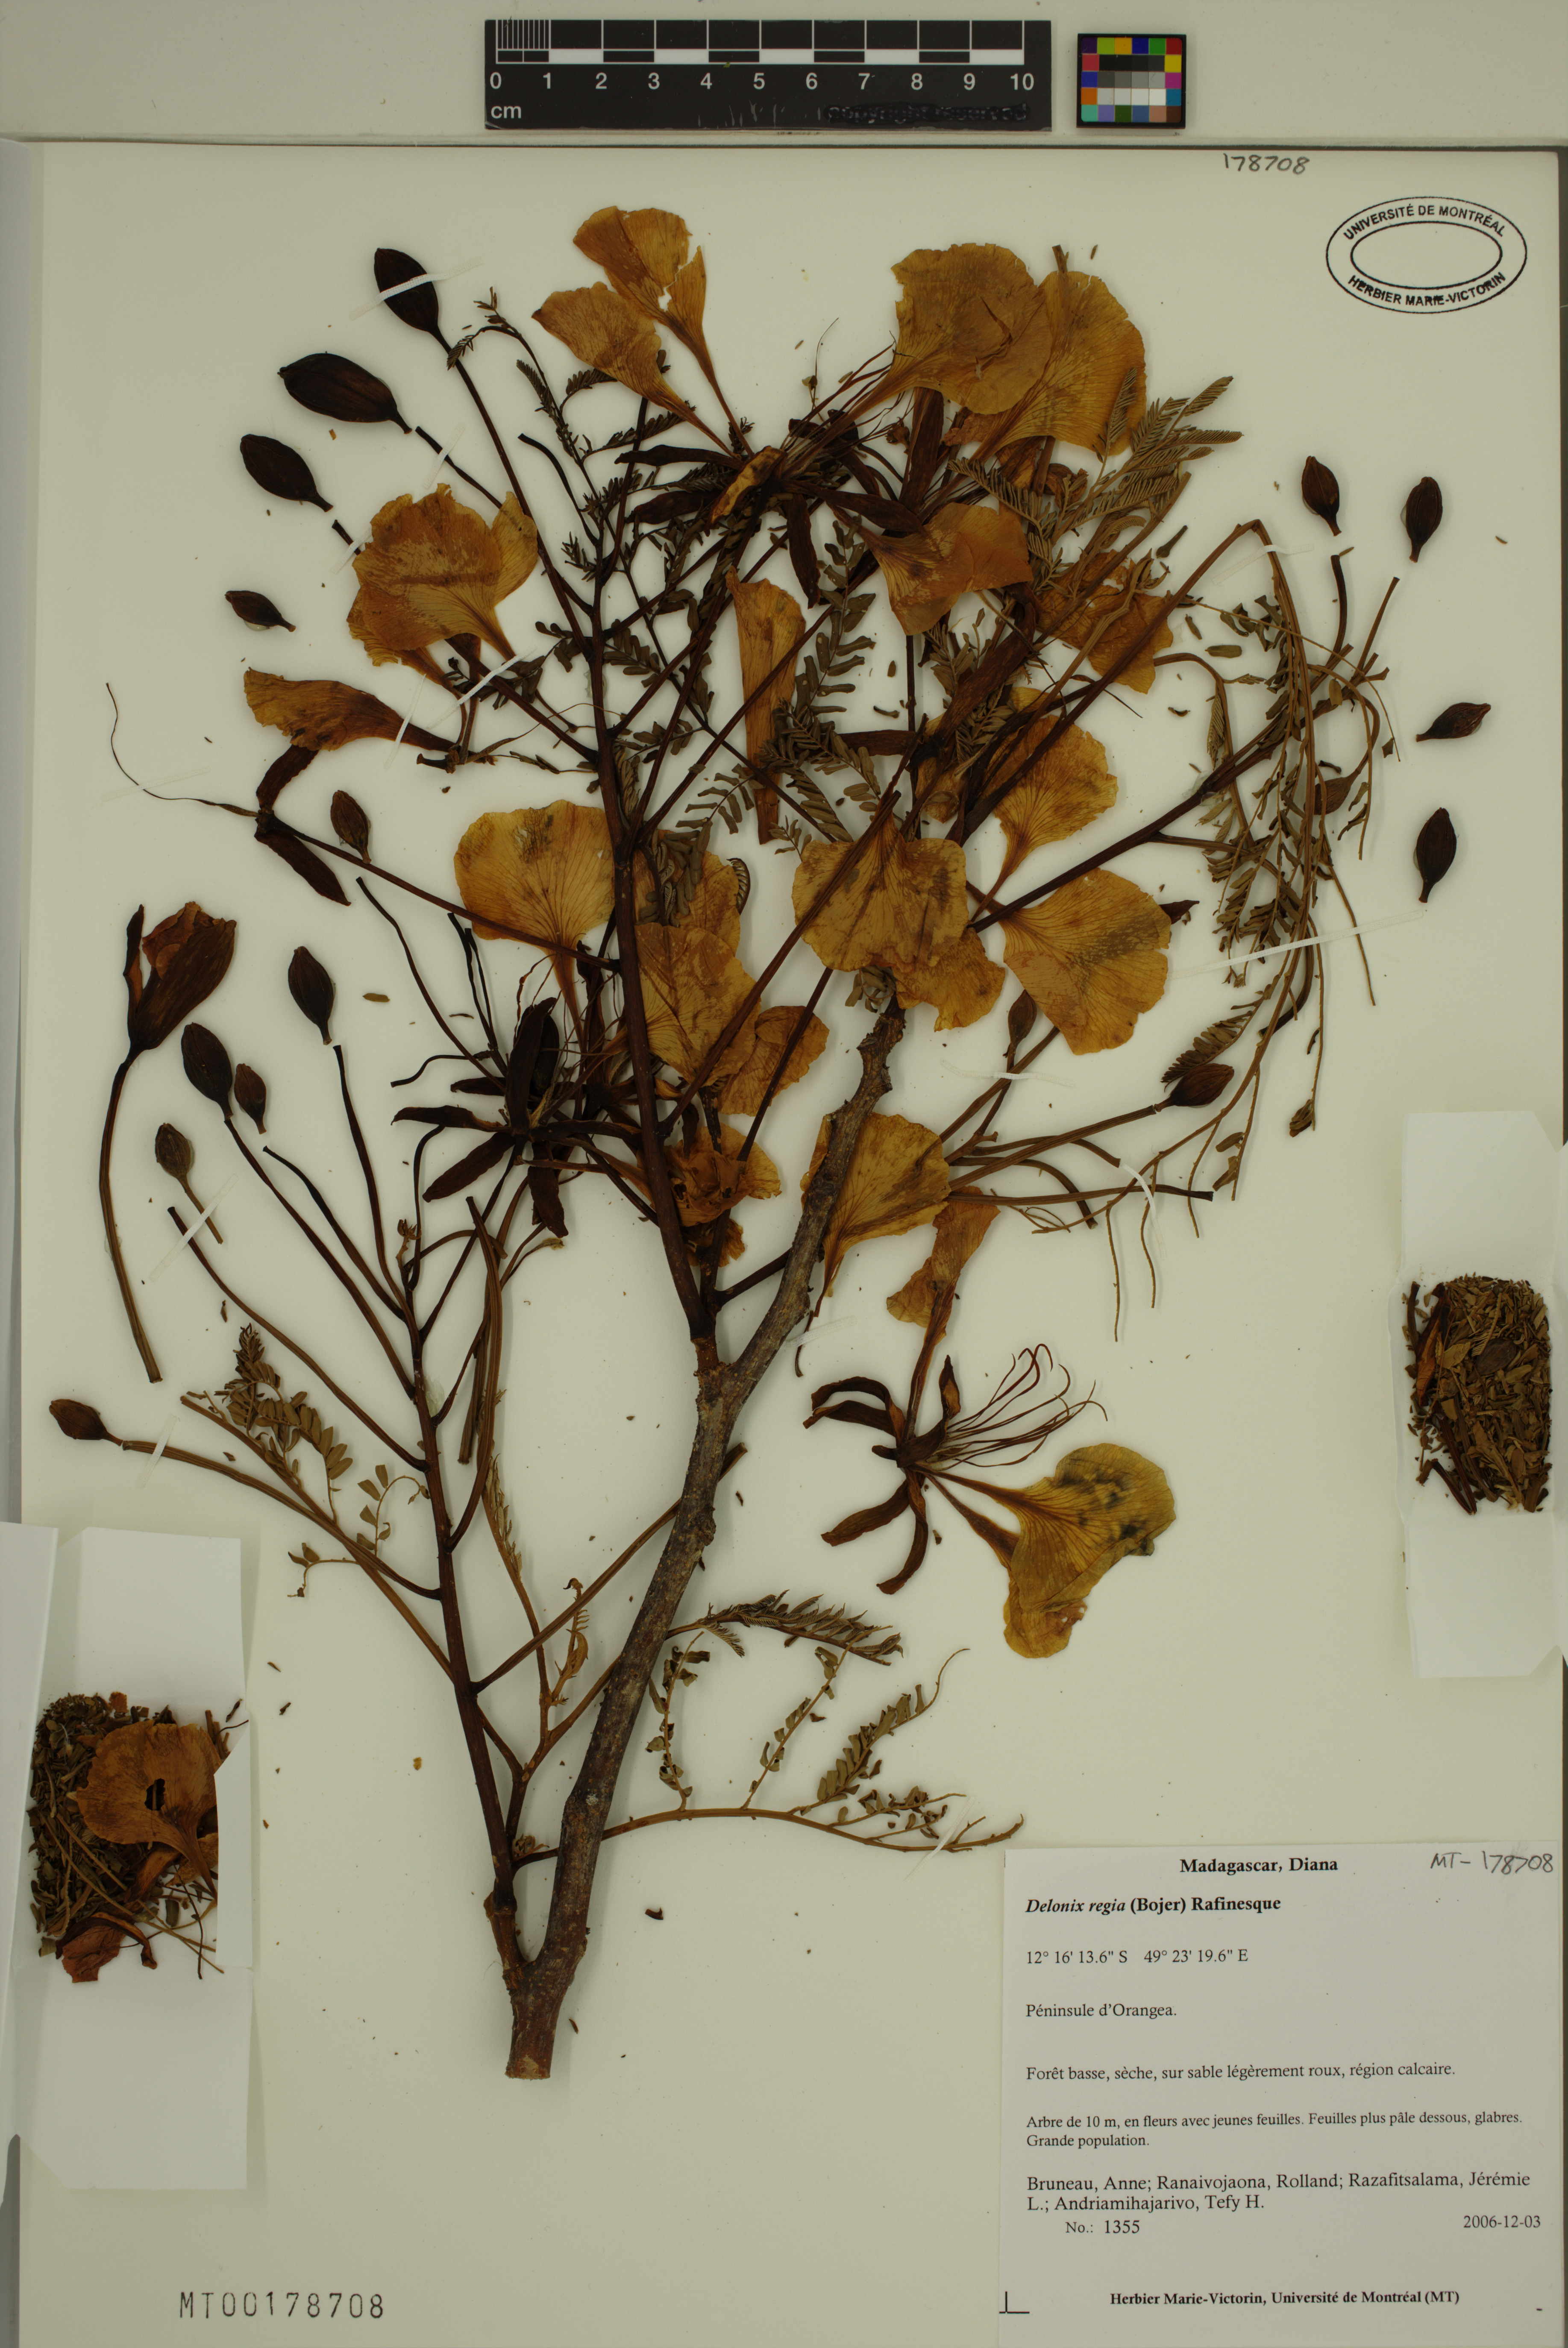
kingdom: Plantae
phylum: Tracheophyta
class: Magnoliopsida
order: Fabales
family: Fabaceae
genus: Delonix
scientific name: Delonix regia
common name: Royal poinciana
